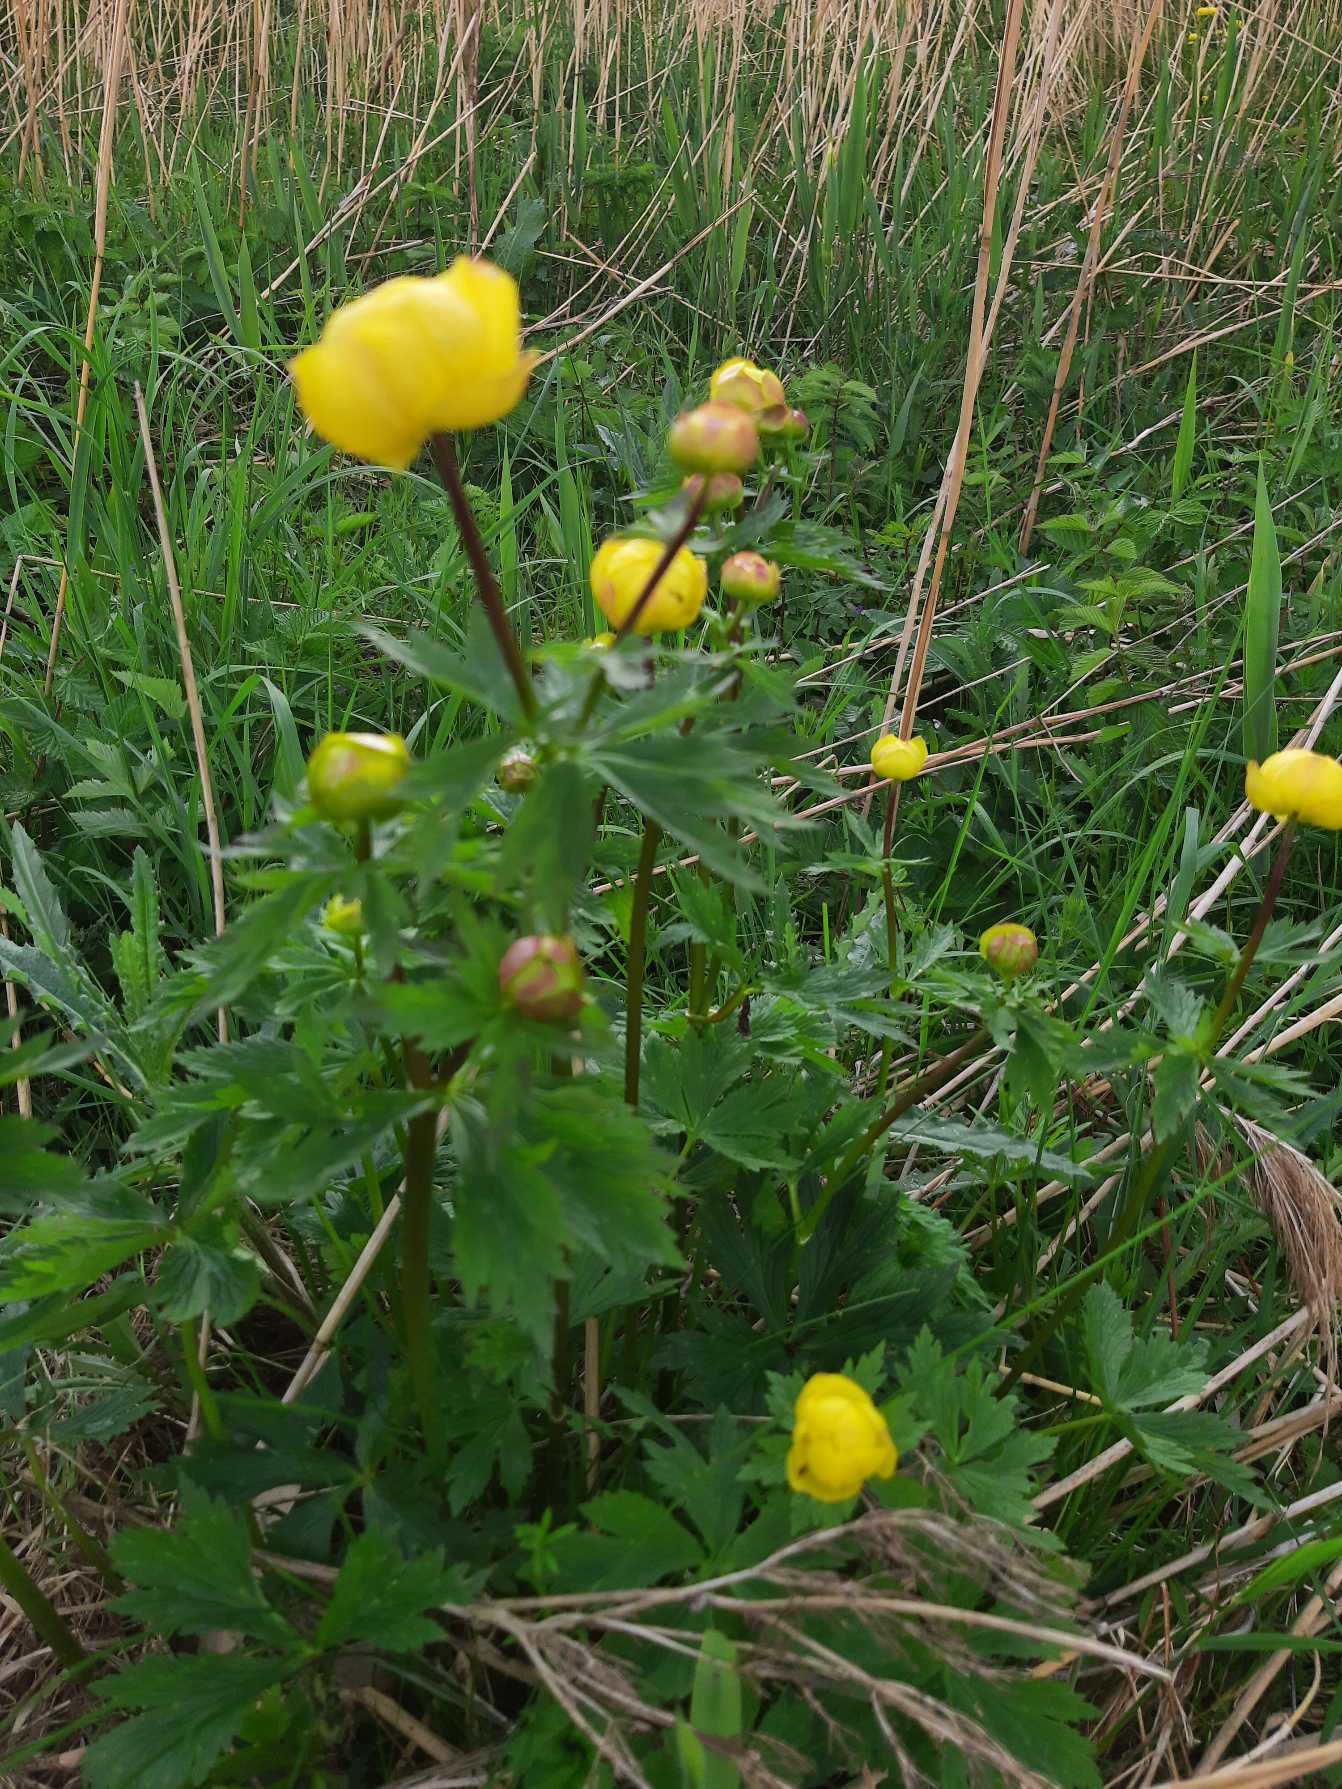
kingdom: Plantae
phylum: Tracheophyta
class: Magnoliopsida
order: Ranunculales
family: Ranunculaceae
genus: Trollius
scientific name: Trollius europaeus
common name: Engblomme
